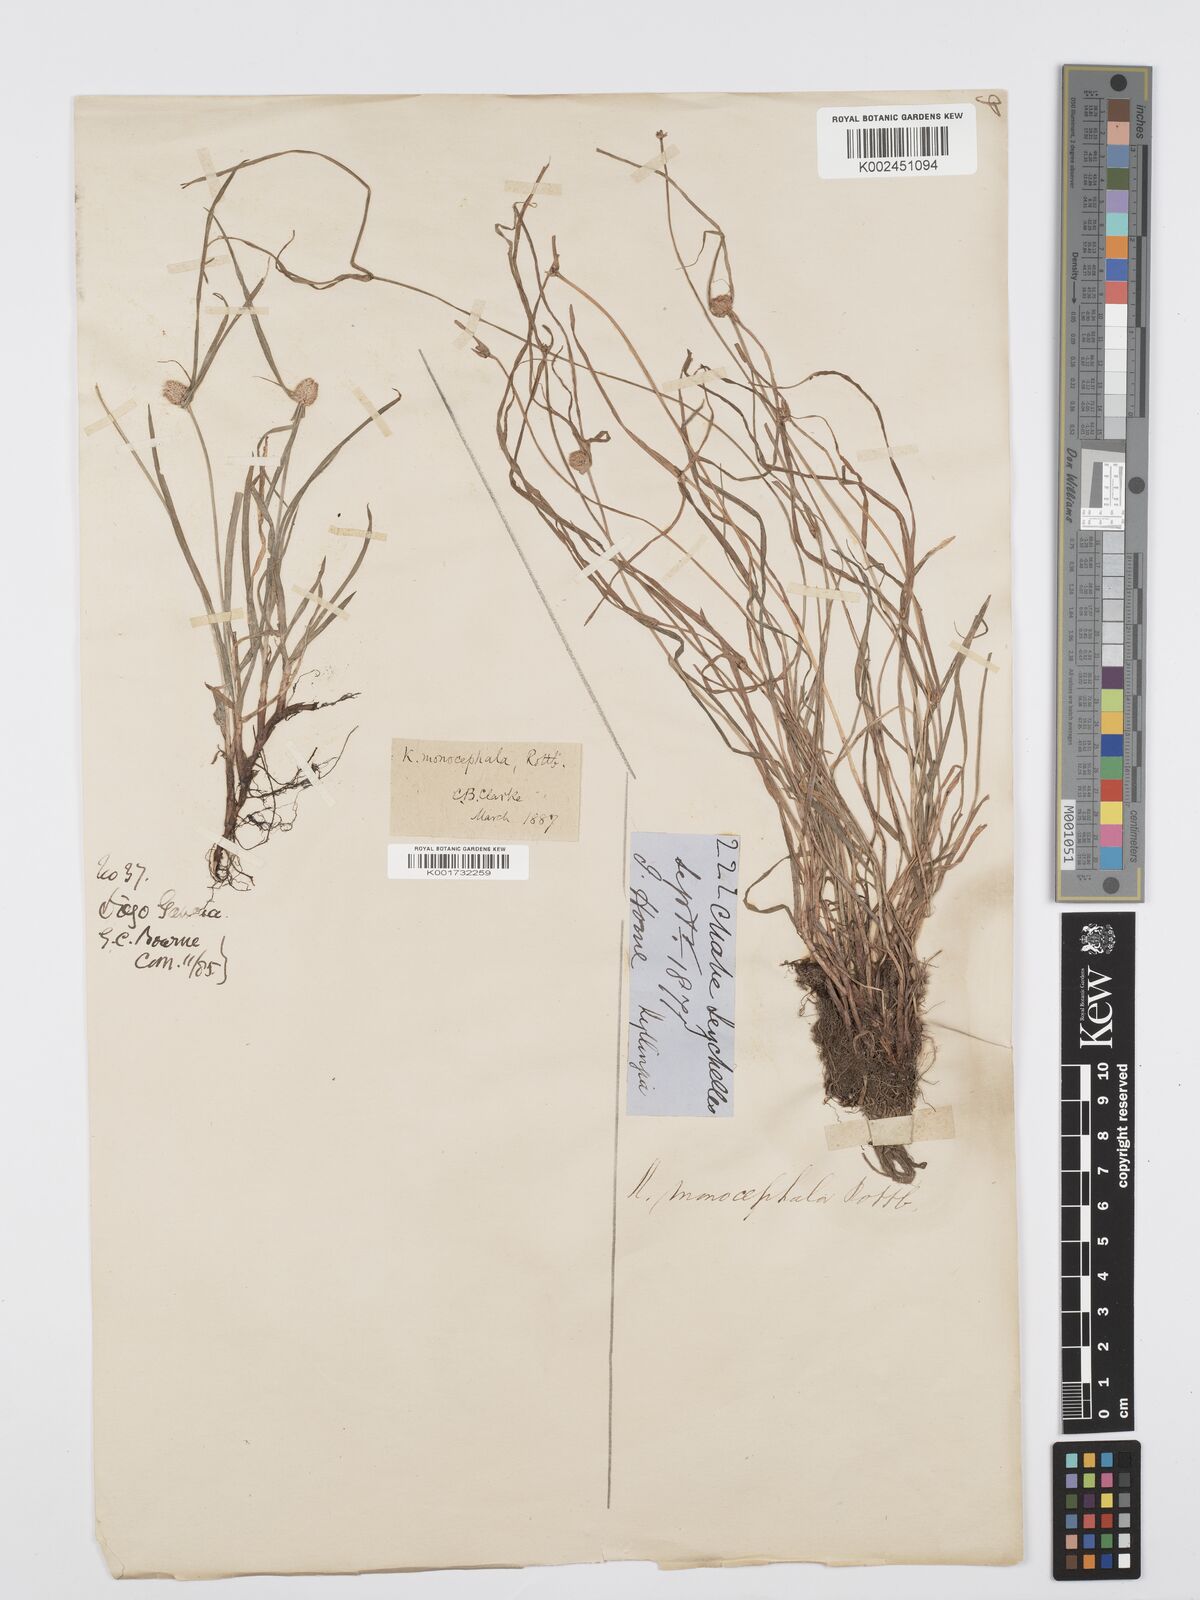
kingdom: Plantae
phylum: Tracheophyta
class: Liliopsida
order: Poales
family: Cyperaceae
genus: Cyperus
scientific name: Cyperus nemoralis
